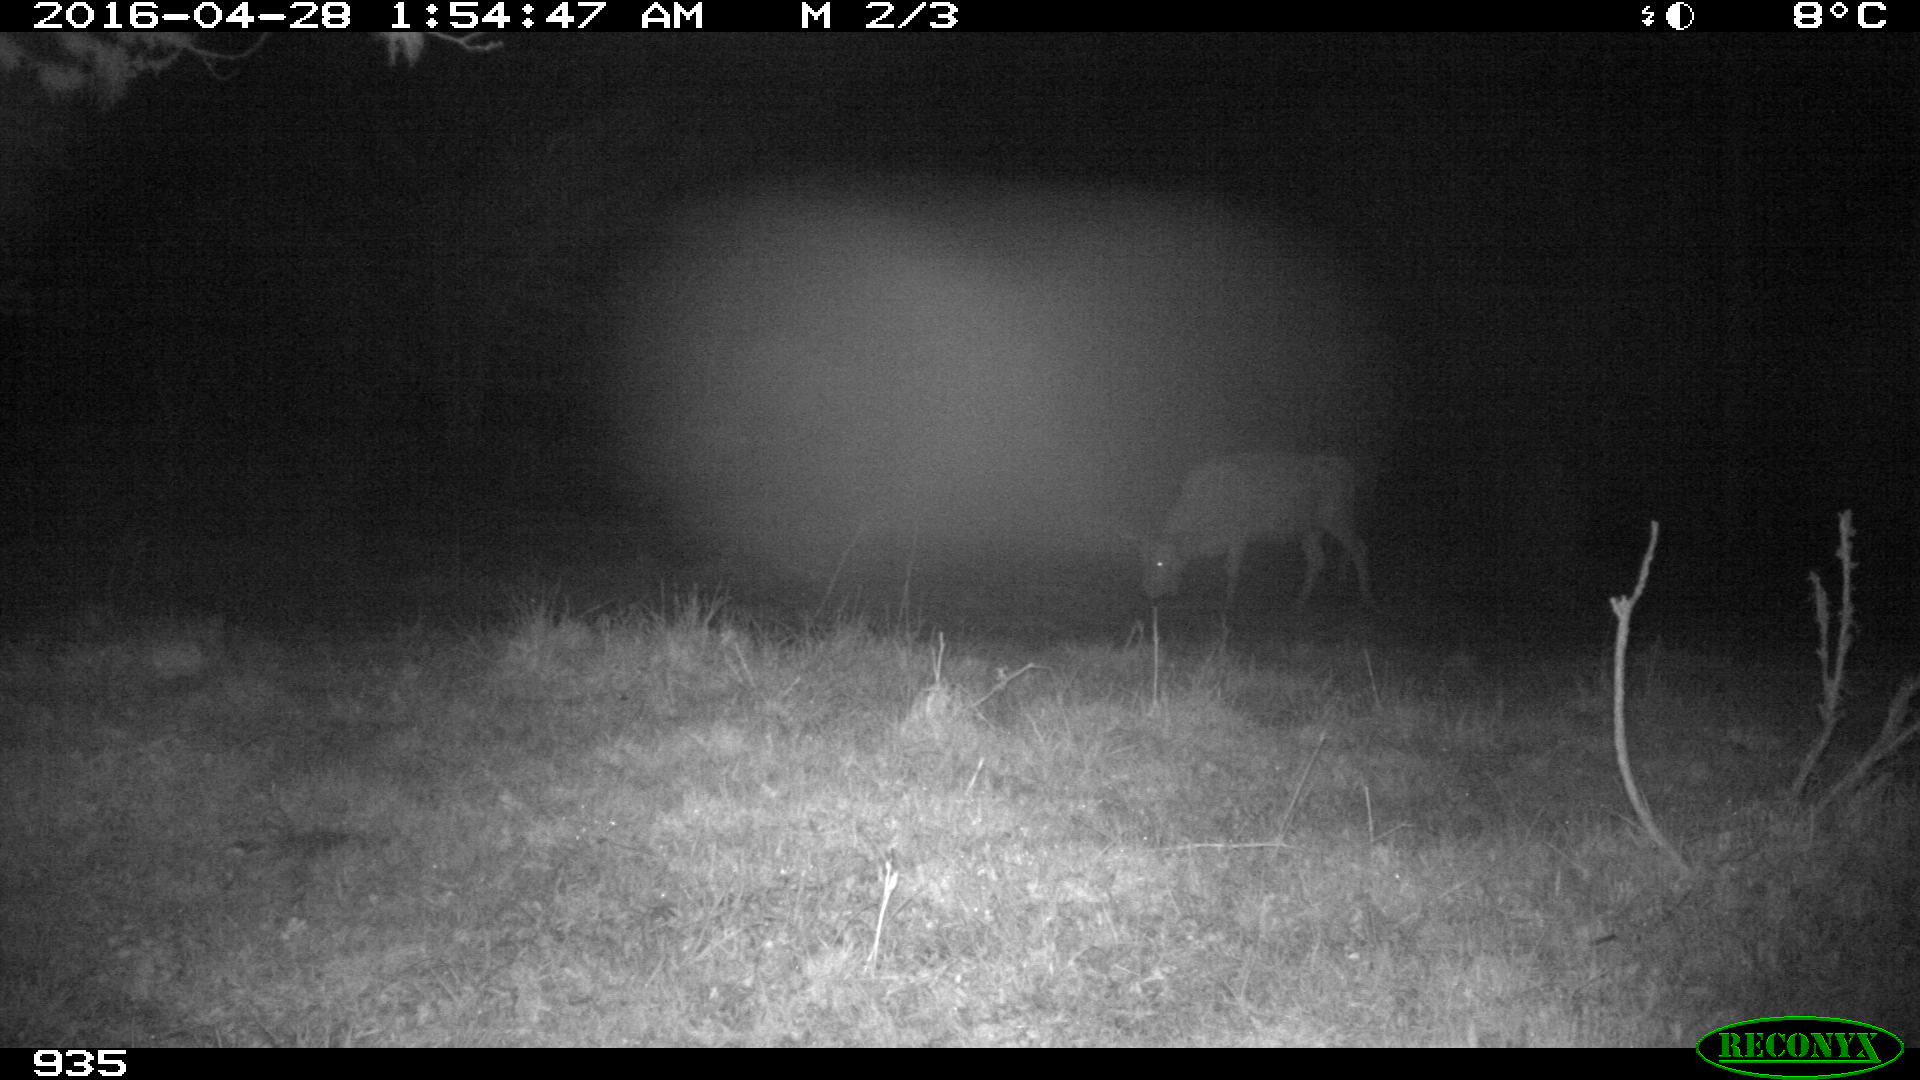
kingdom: Animalia
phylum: Chordata
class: Mammalia
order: Artiodactyla
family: Bovidae
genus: Bos
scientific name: Bos taurus
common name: Domesticated cattle
